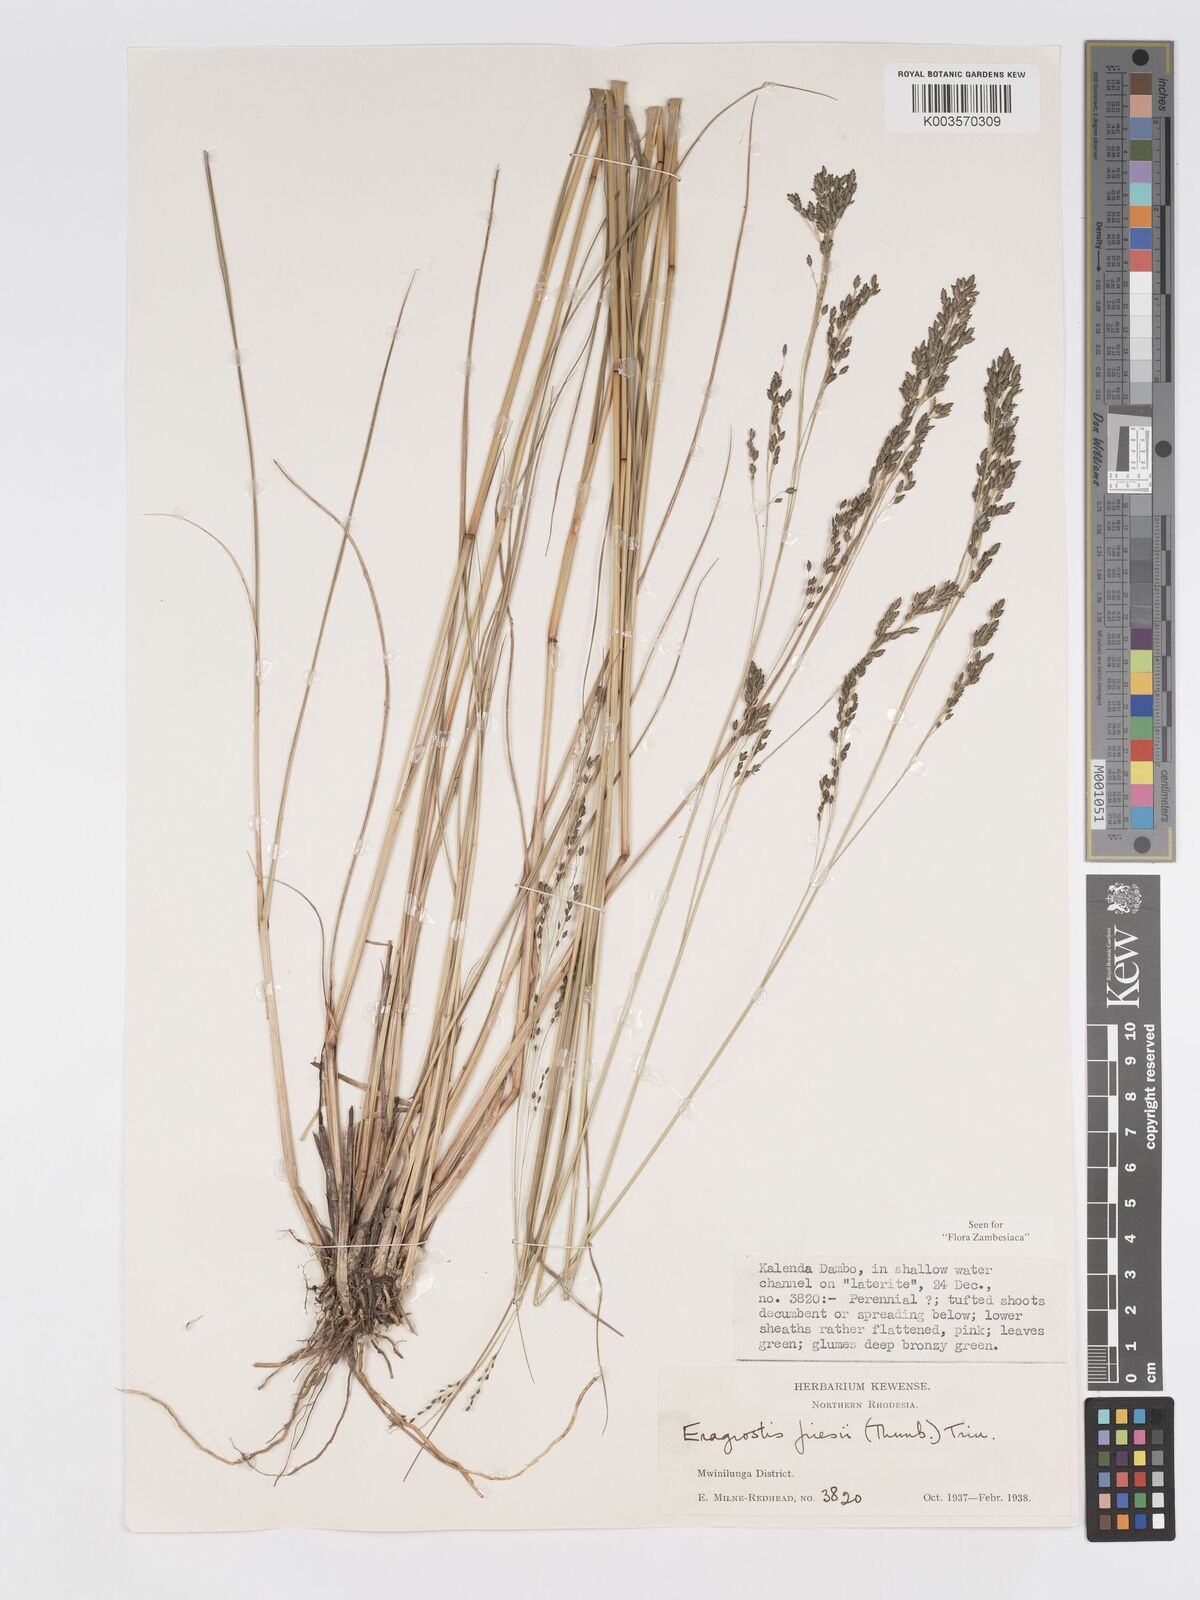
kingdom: Plantae
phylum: Tracheophyta
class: Liliopsida
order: Poales
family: Poaceae
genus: Eragrostis
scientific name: Eragrostis botryodes
